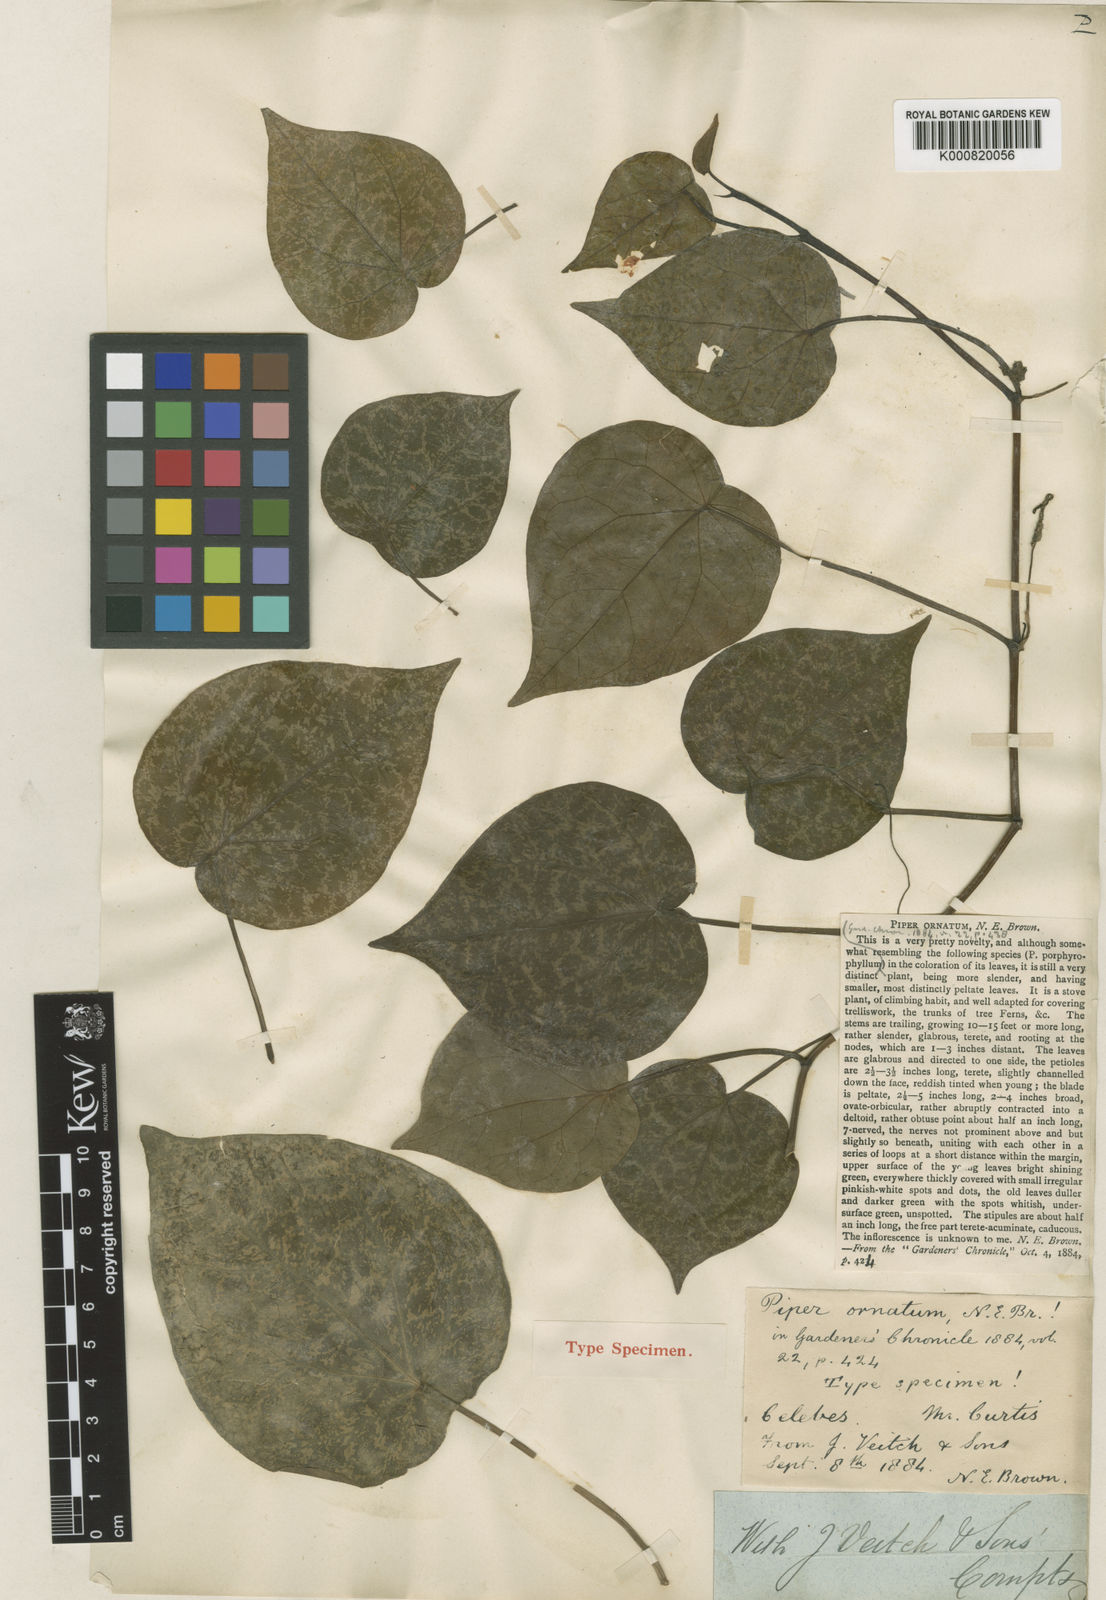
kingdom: Plantae
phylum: Tracheophyta
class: Magnoliopsida
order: Piperales
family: Piperaceae
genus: Piper
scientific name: Piper ornatum
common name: Celebes pepper
